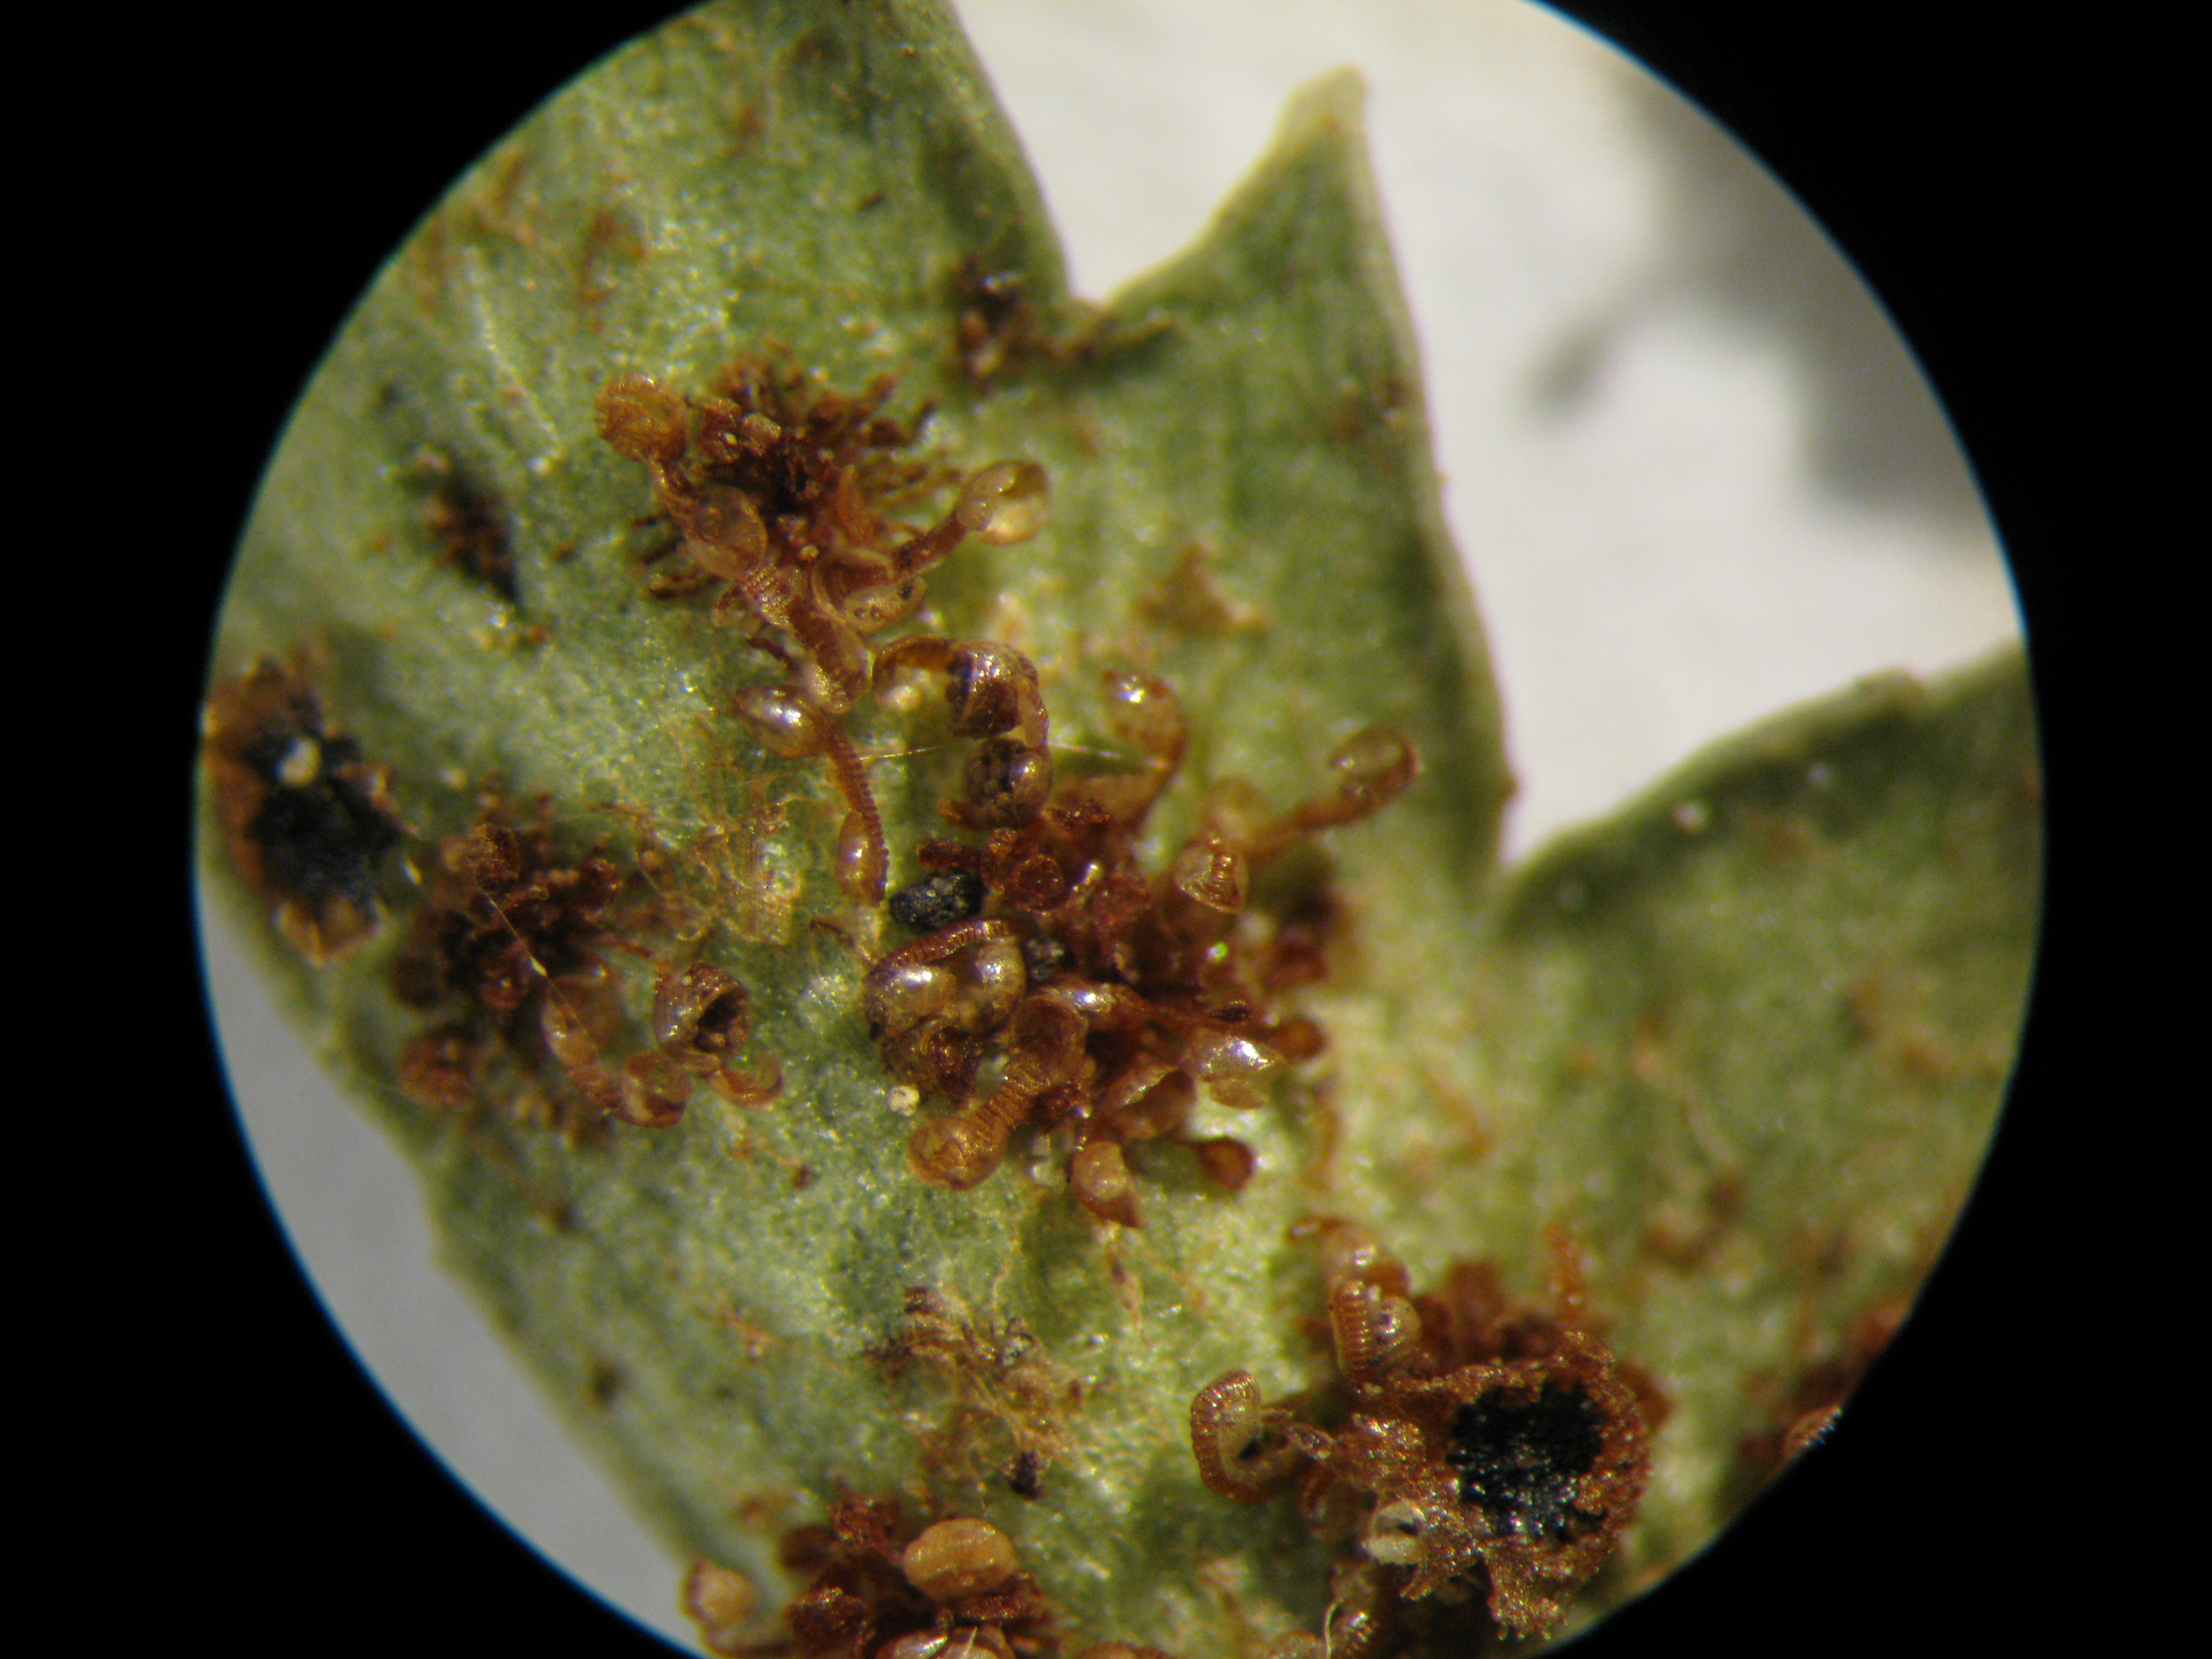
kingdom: Plantae
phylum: Tracheophyta
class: Polypodiopsida
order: Polypodiales
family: Dryopteridaceae
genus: Polystichum
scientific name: Polystichum oculatum
